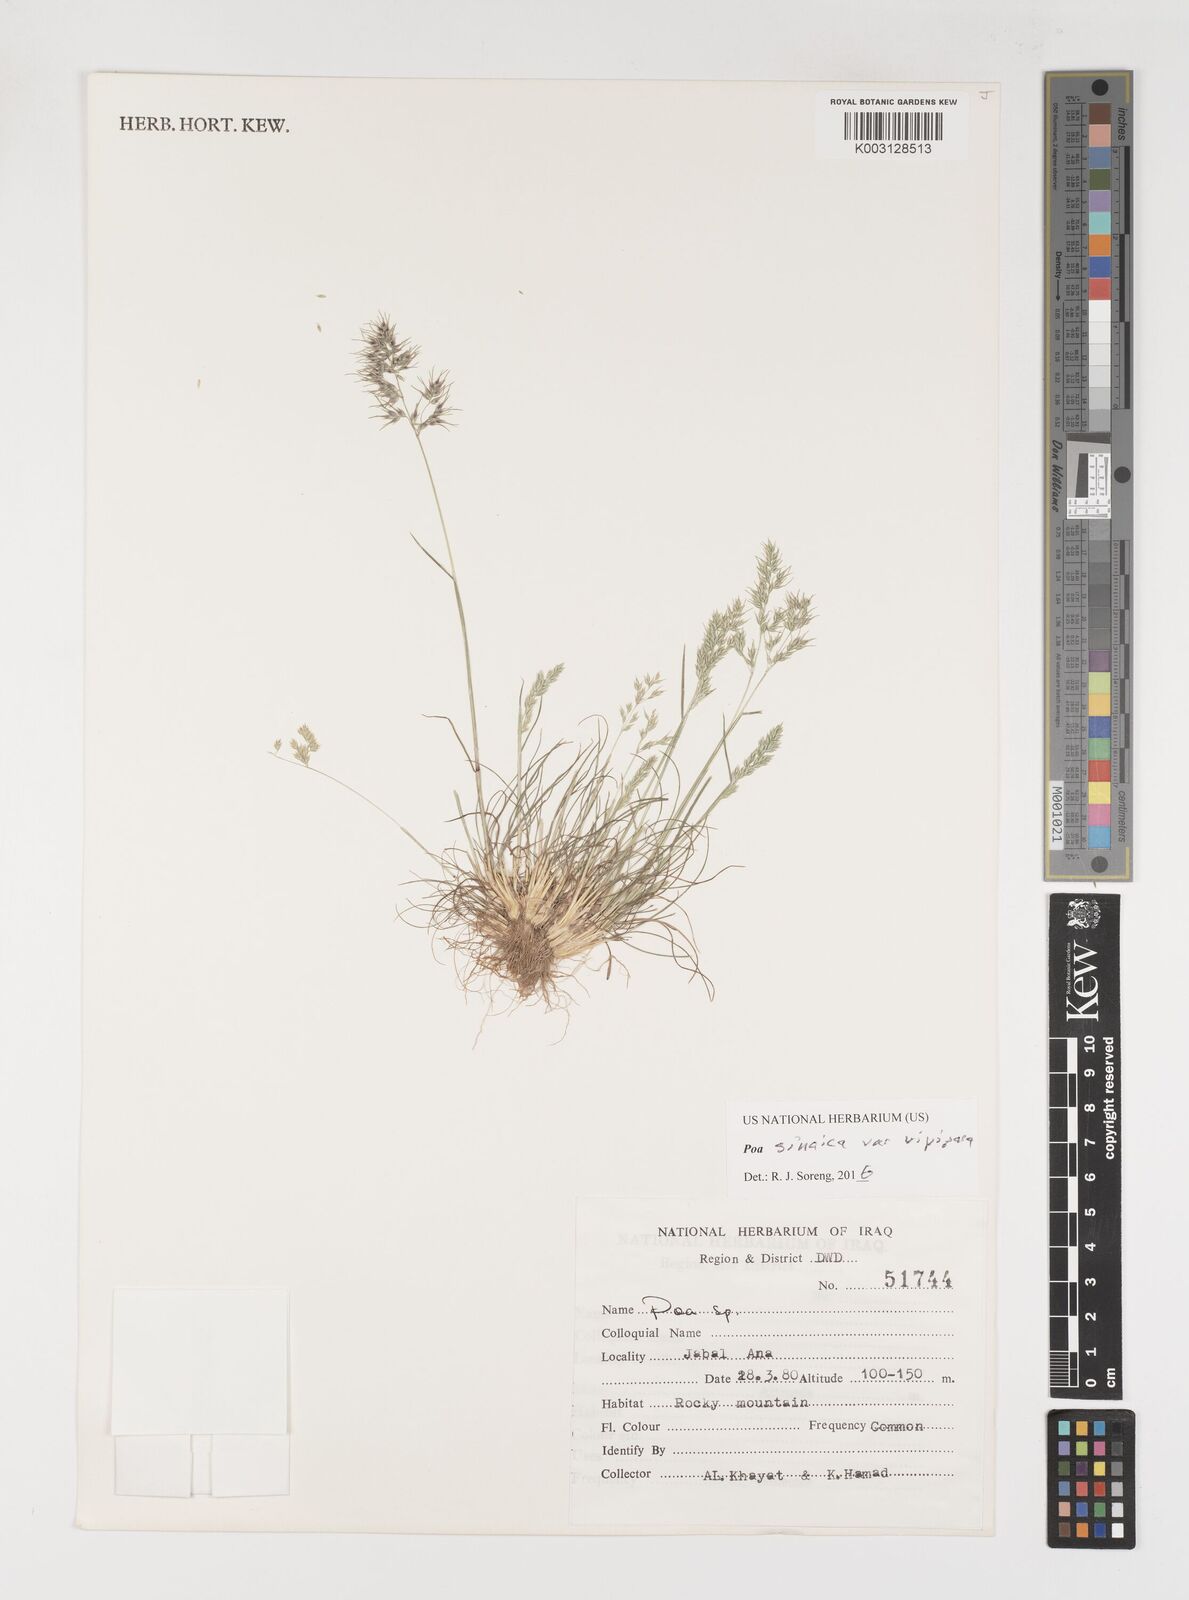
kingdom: Plantae
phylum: Tracheophyta
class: Liliopsida
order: Poales
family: Poaceae
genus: Poa
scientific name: Poa sinaica
